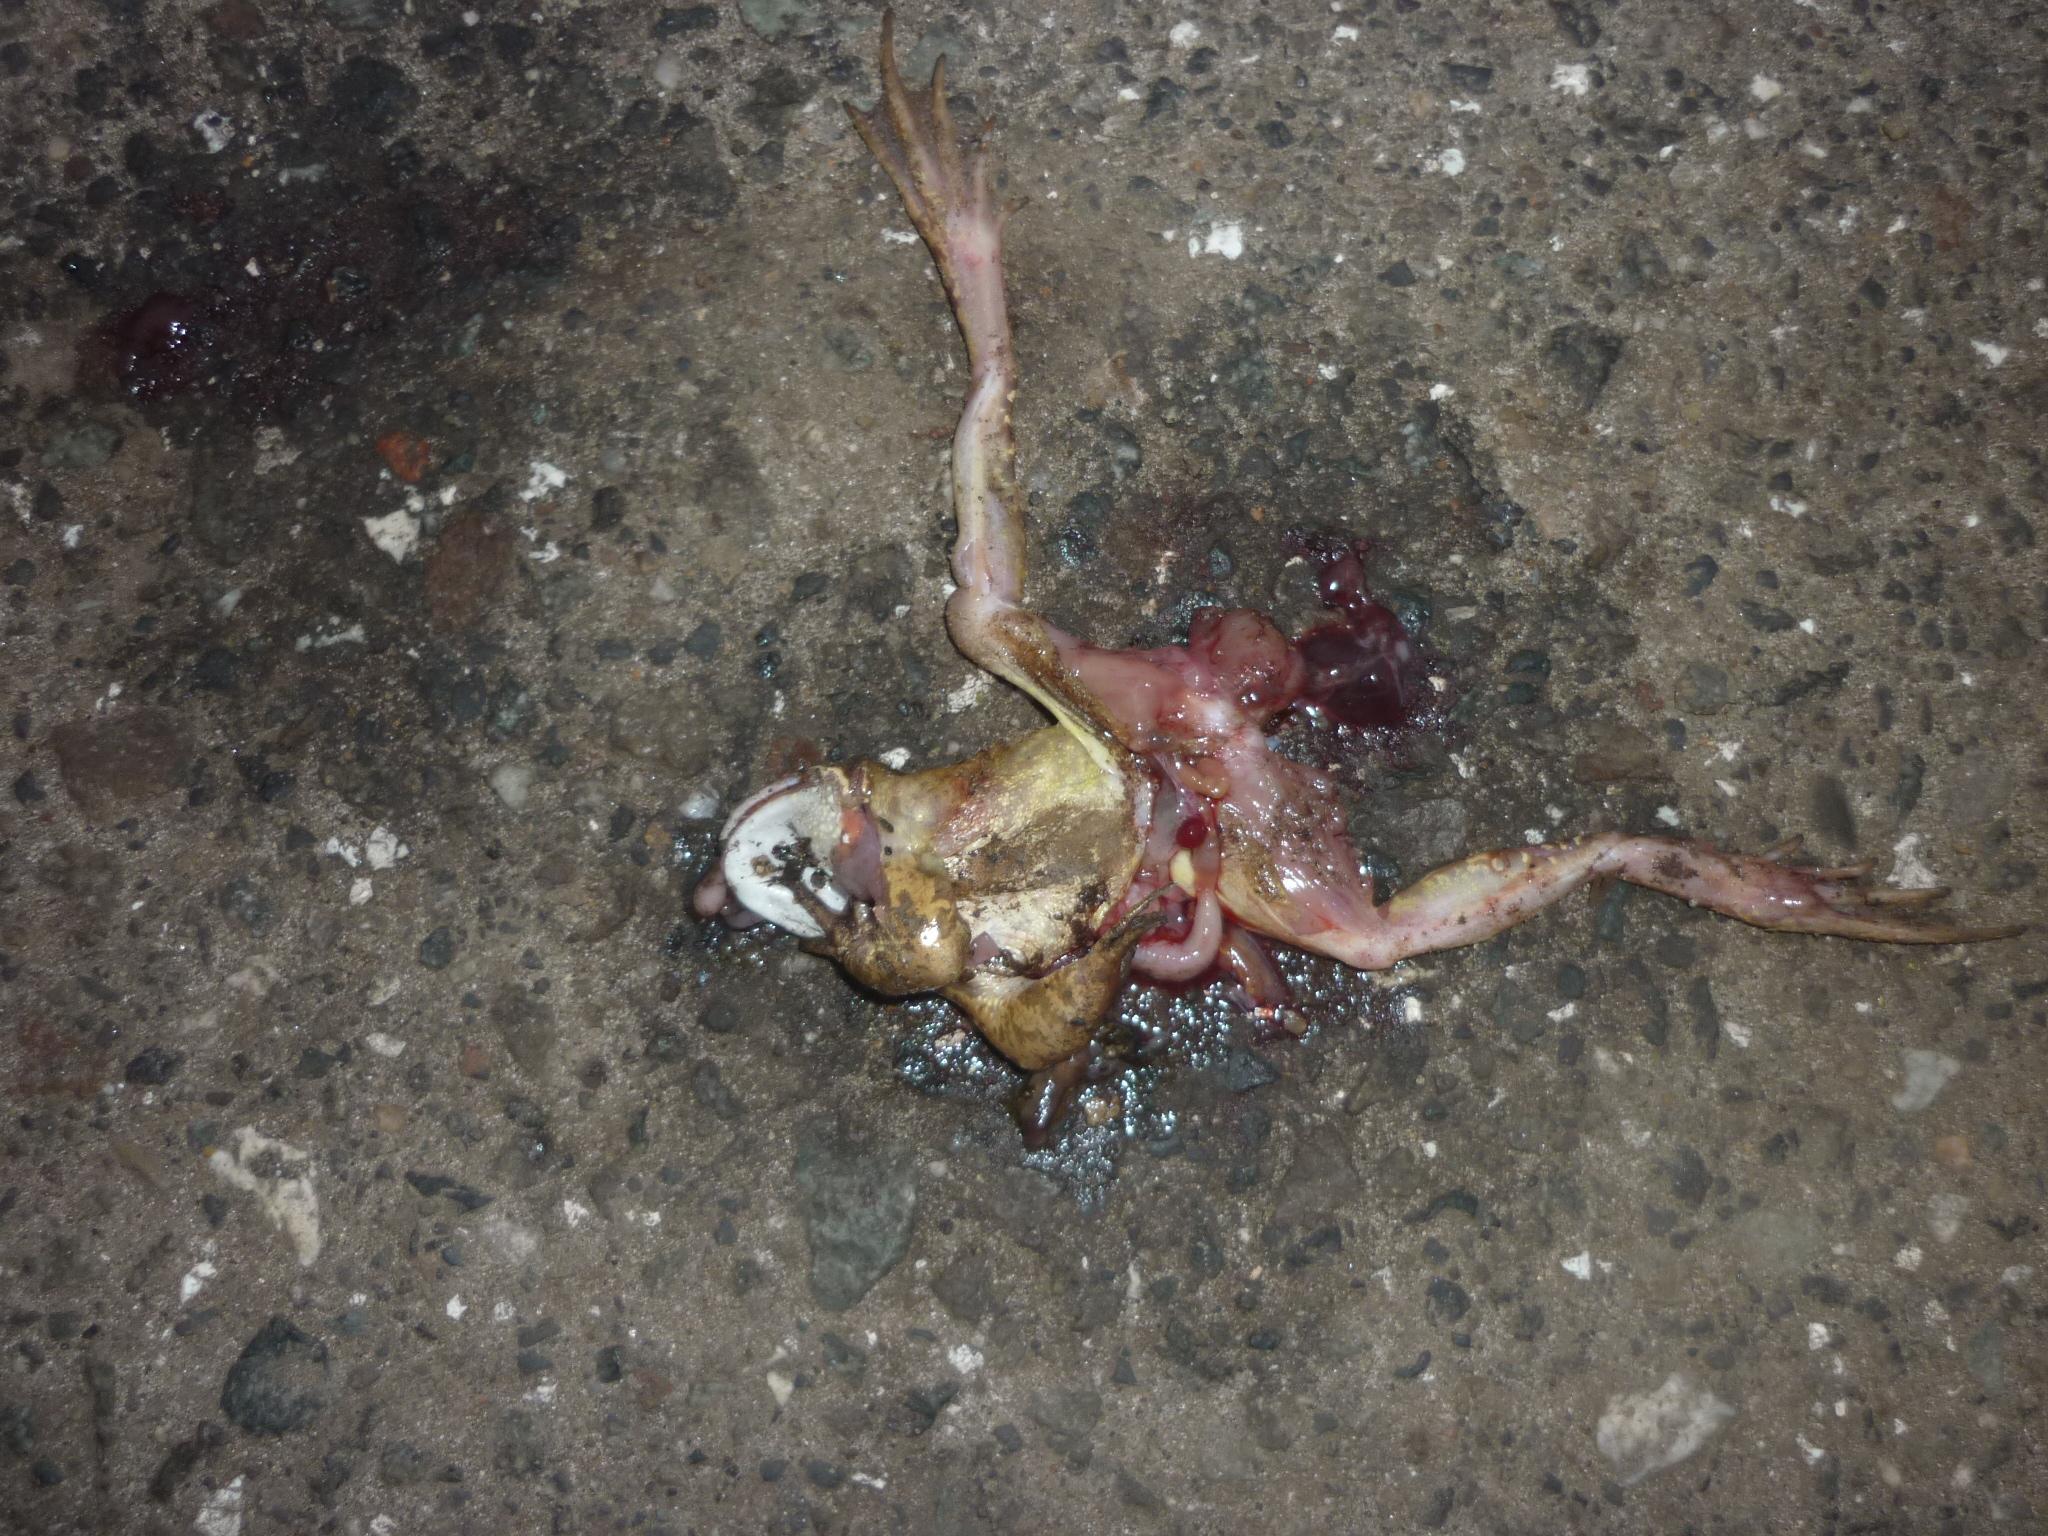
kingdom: Animalia
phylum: Chordata
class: Amphibia
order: Anura
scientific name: Anura
